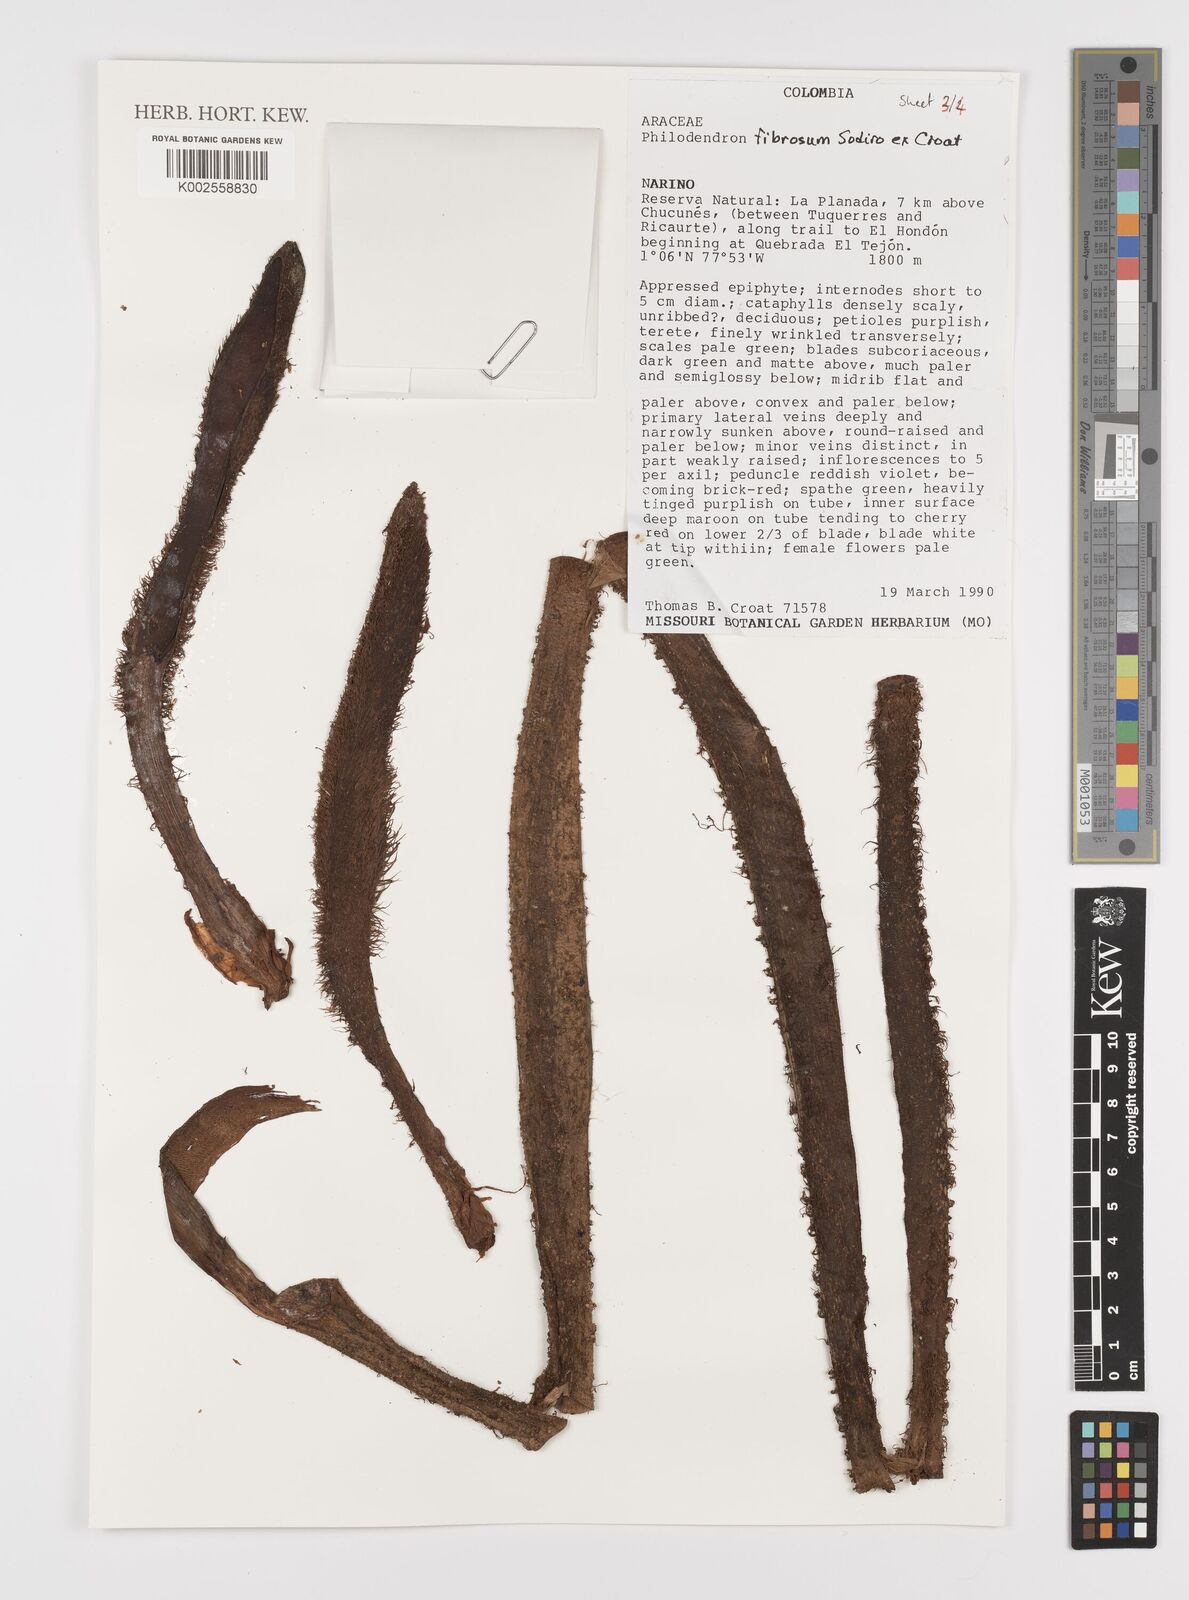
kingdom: Plantae
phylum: Tracheophyta
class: Liliopsida
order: Alismatales
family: Araceae
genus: Philodendron
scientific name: Philodendron fibrosum
